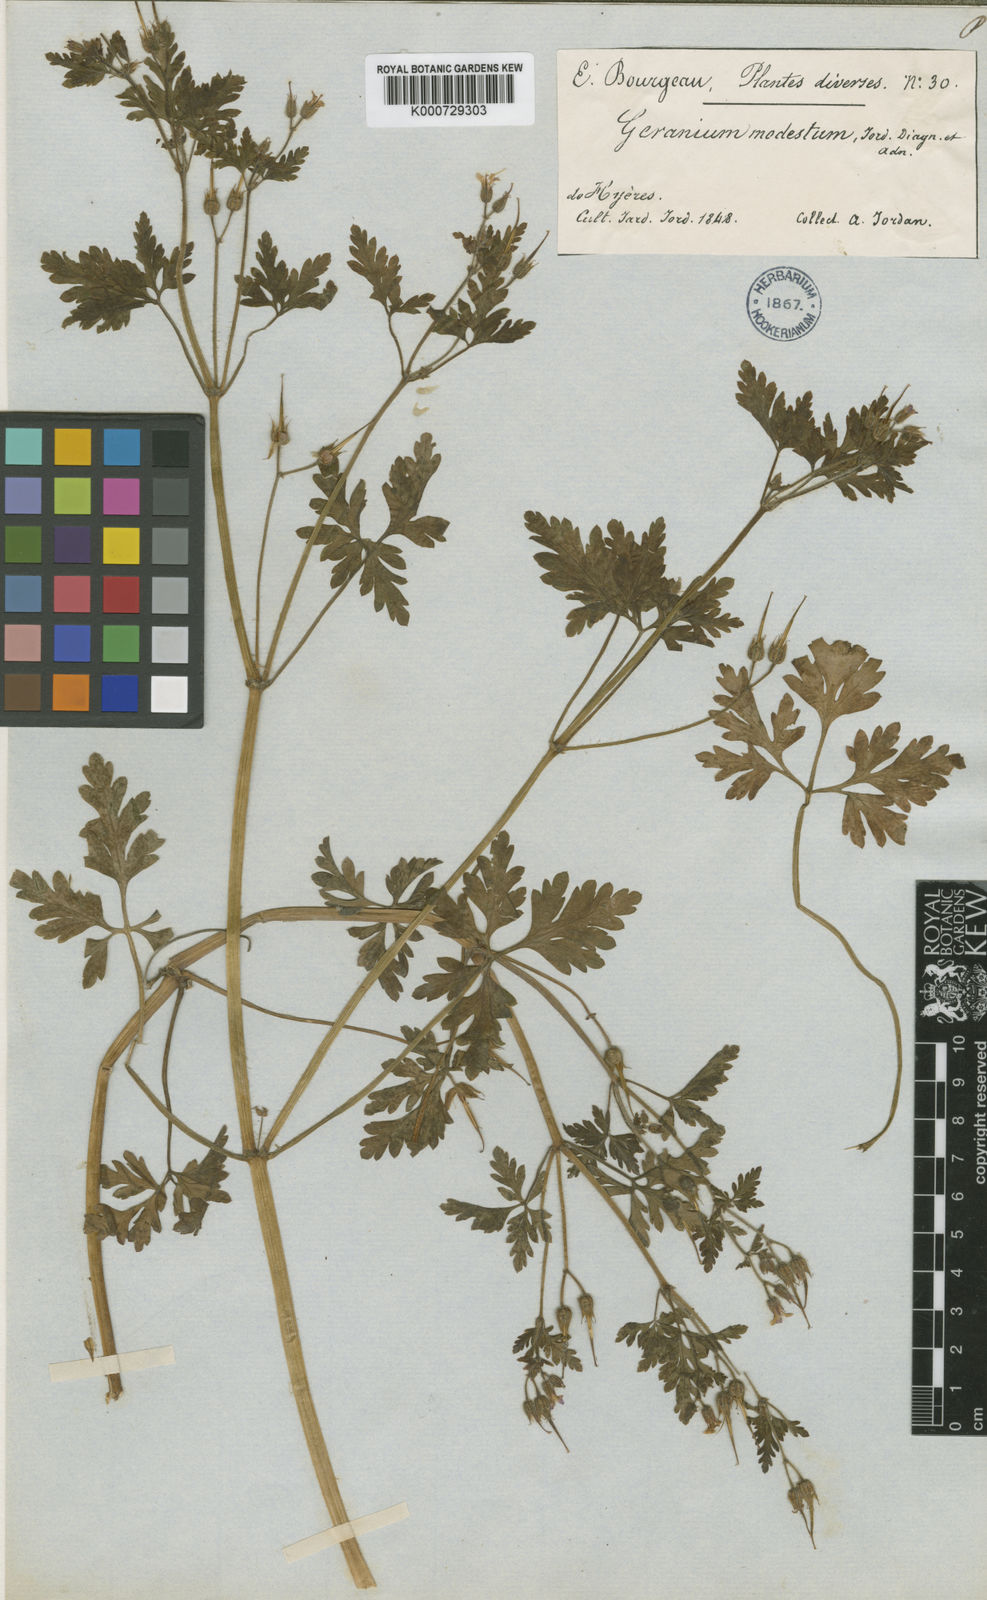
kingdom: Plantae
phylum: Tracheophyta
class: Magnoliopsida
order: Geraniales
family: Geraniaceae
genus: Geranium
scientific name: Geranium robertianum
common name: Herb-robert
